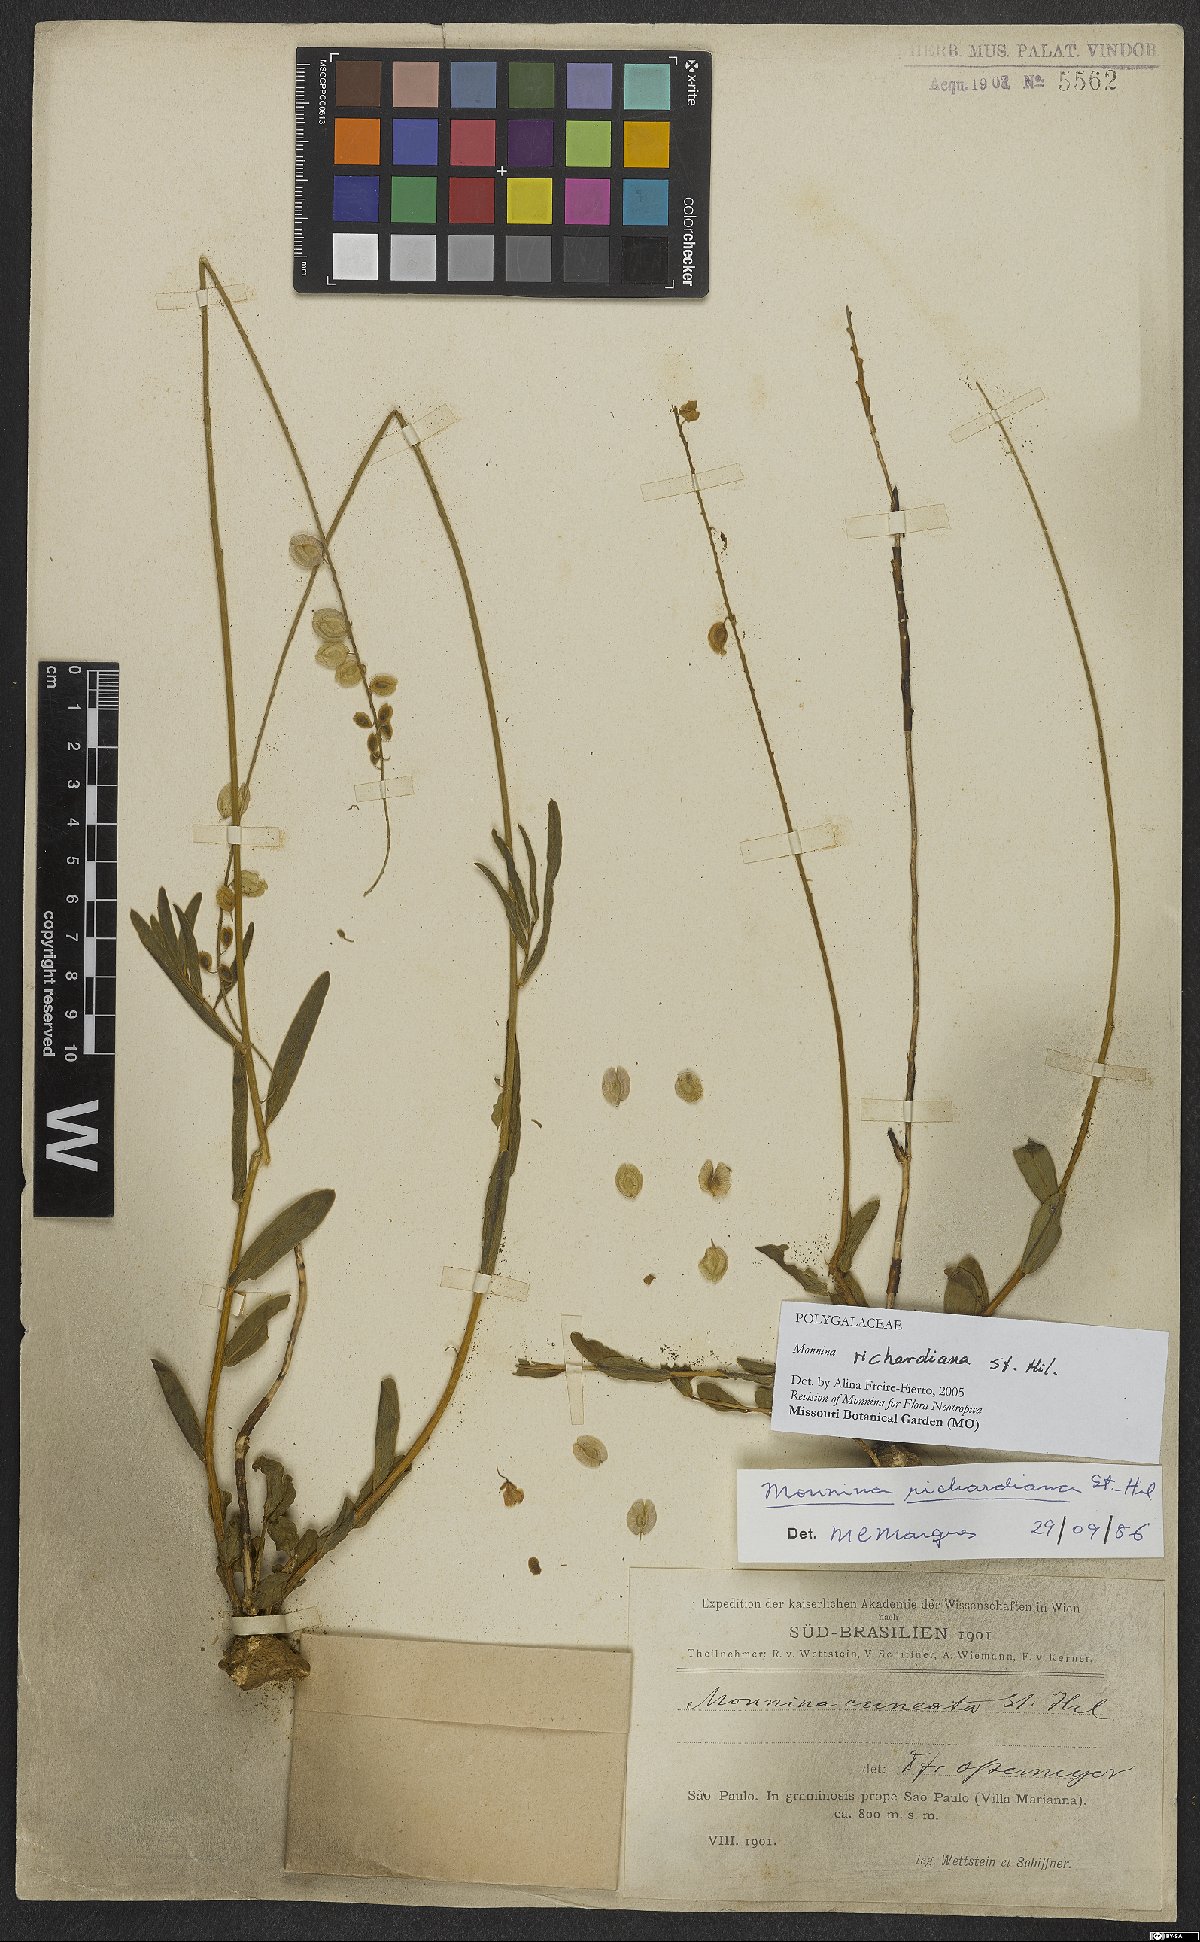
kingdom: Plantae
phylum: Tracheophyta
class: Magnoliopsida
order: Fabales
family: Polygalaceae
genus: Monnina
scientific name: Monnina richardiana
